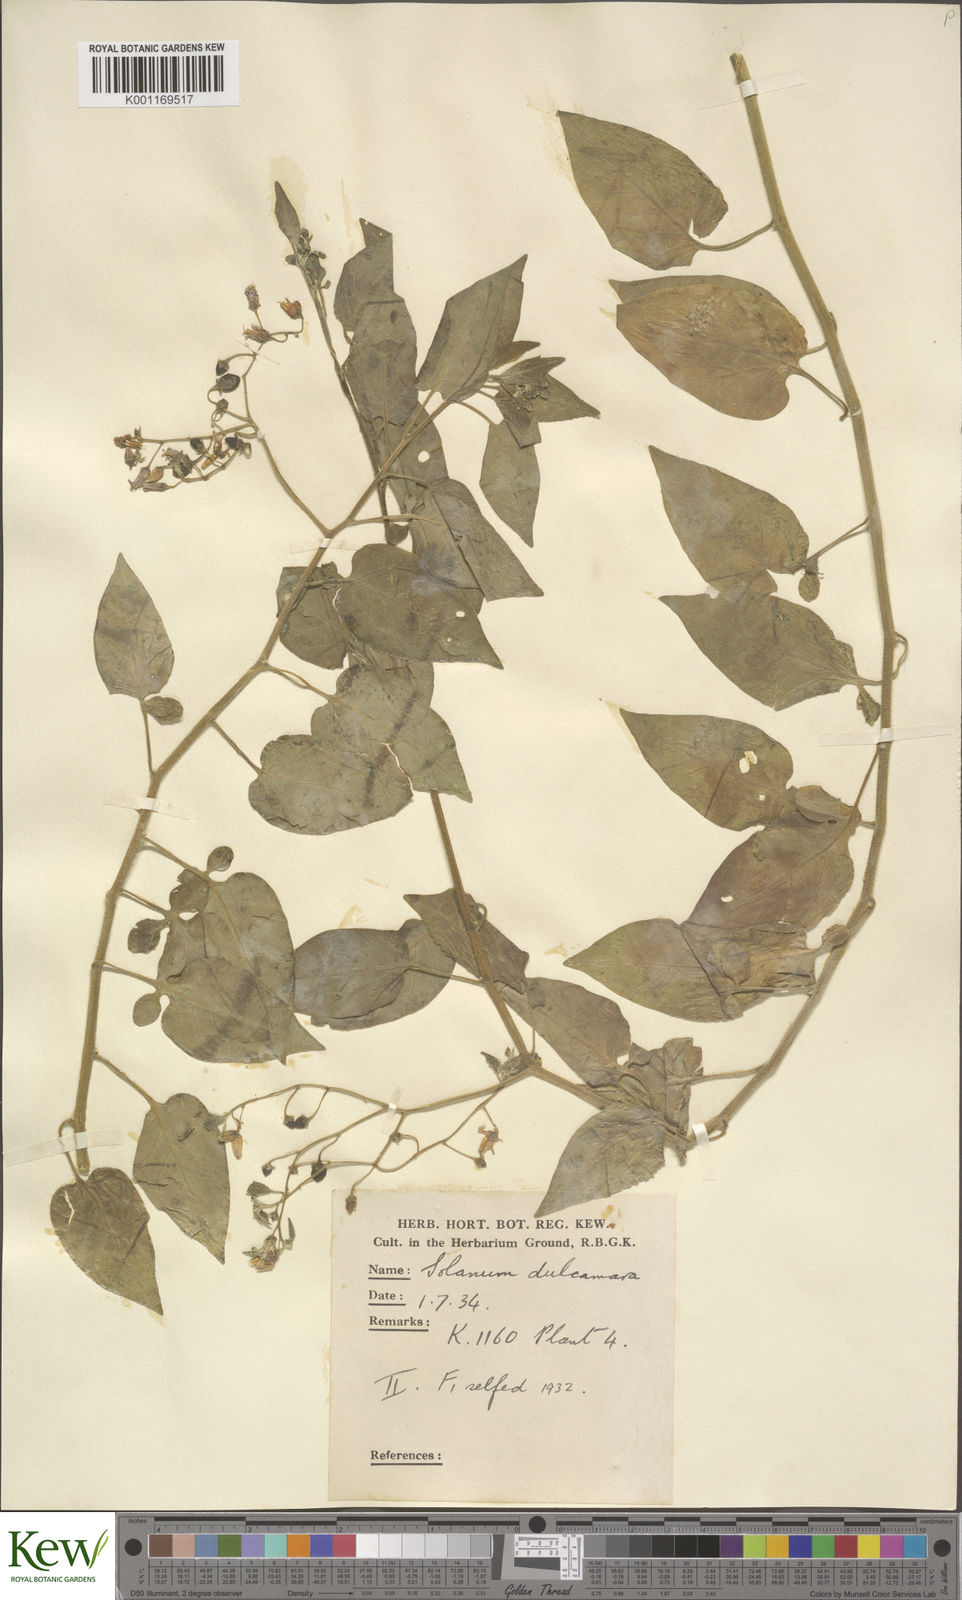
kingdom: Plantae
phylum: Tracheophyta
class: Magnoliopsida
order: Solanales
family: Solanaceae
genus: Solanum
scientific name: Solanum dulcamara
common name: Climbing nightshade
